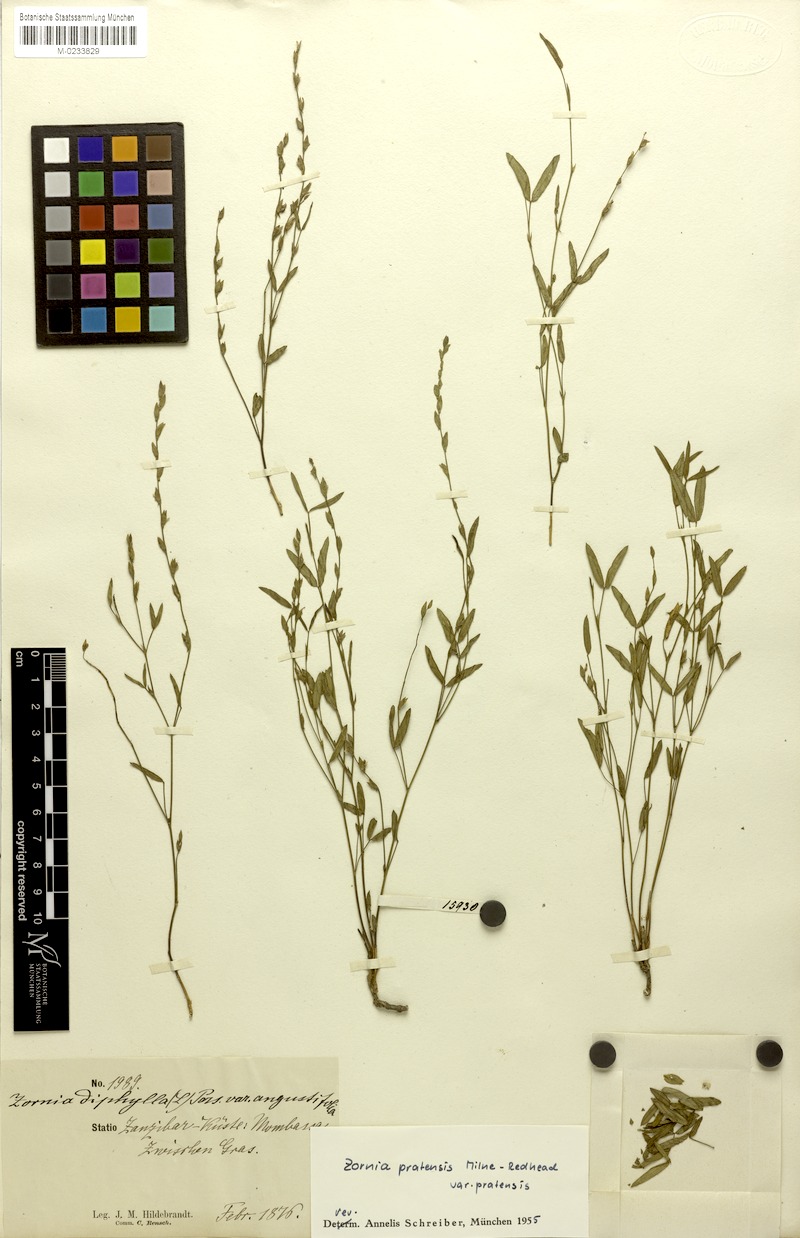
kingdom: Plantae
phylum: Tracheophyta
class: Magnoliopsida
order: Fabales
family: Fabaceae
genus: Zornia
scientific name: Zornia pratensis
